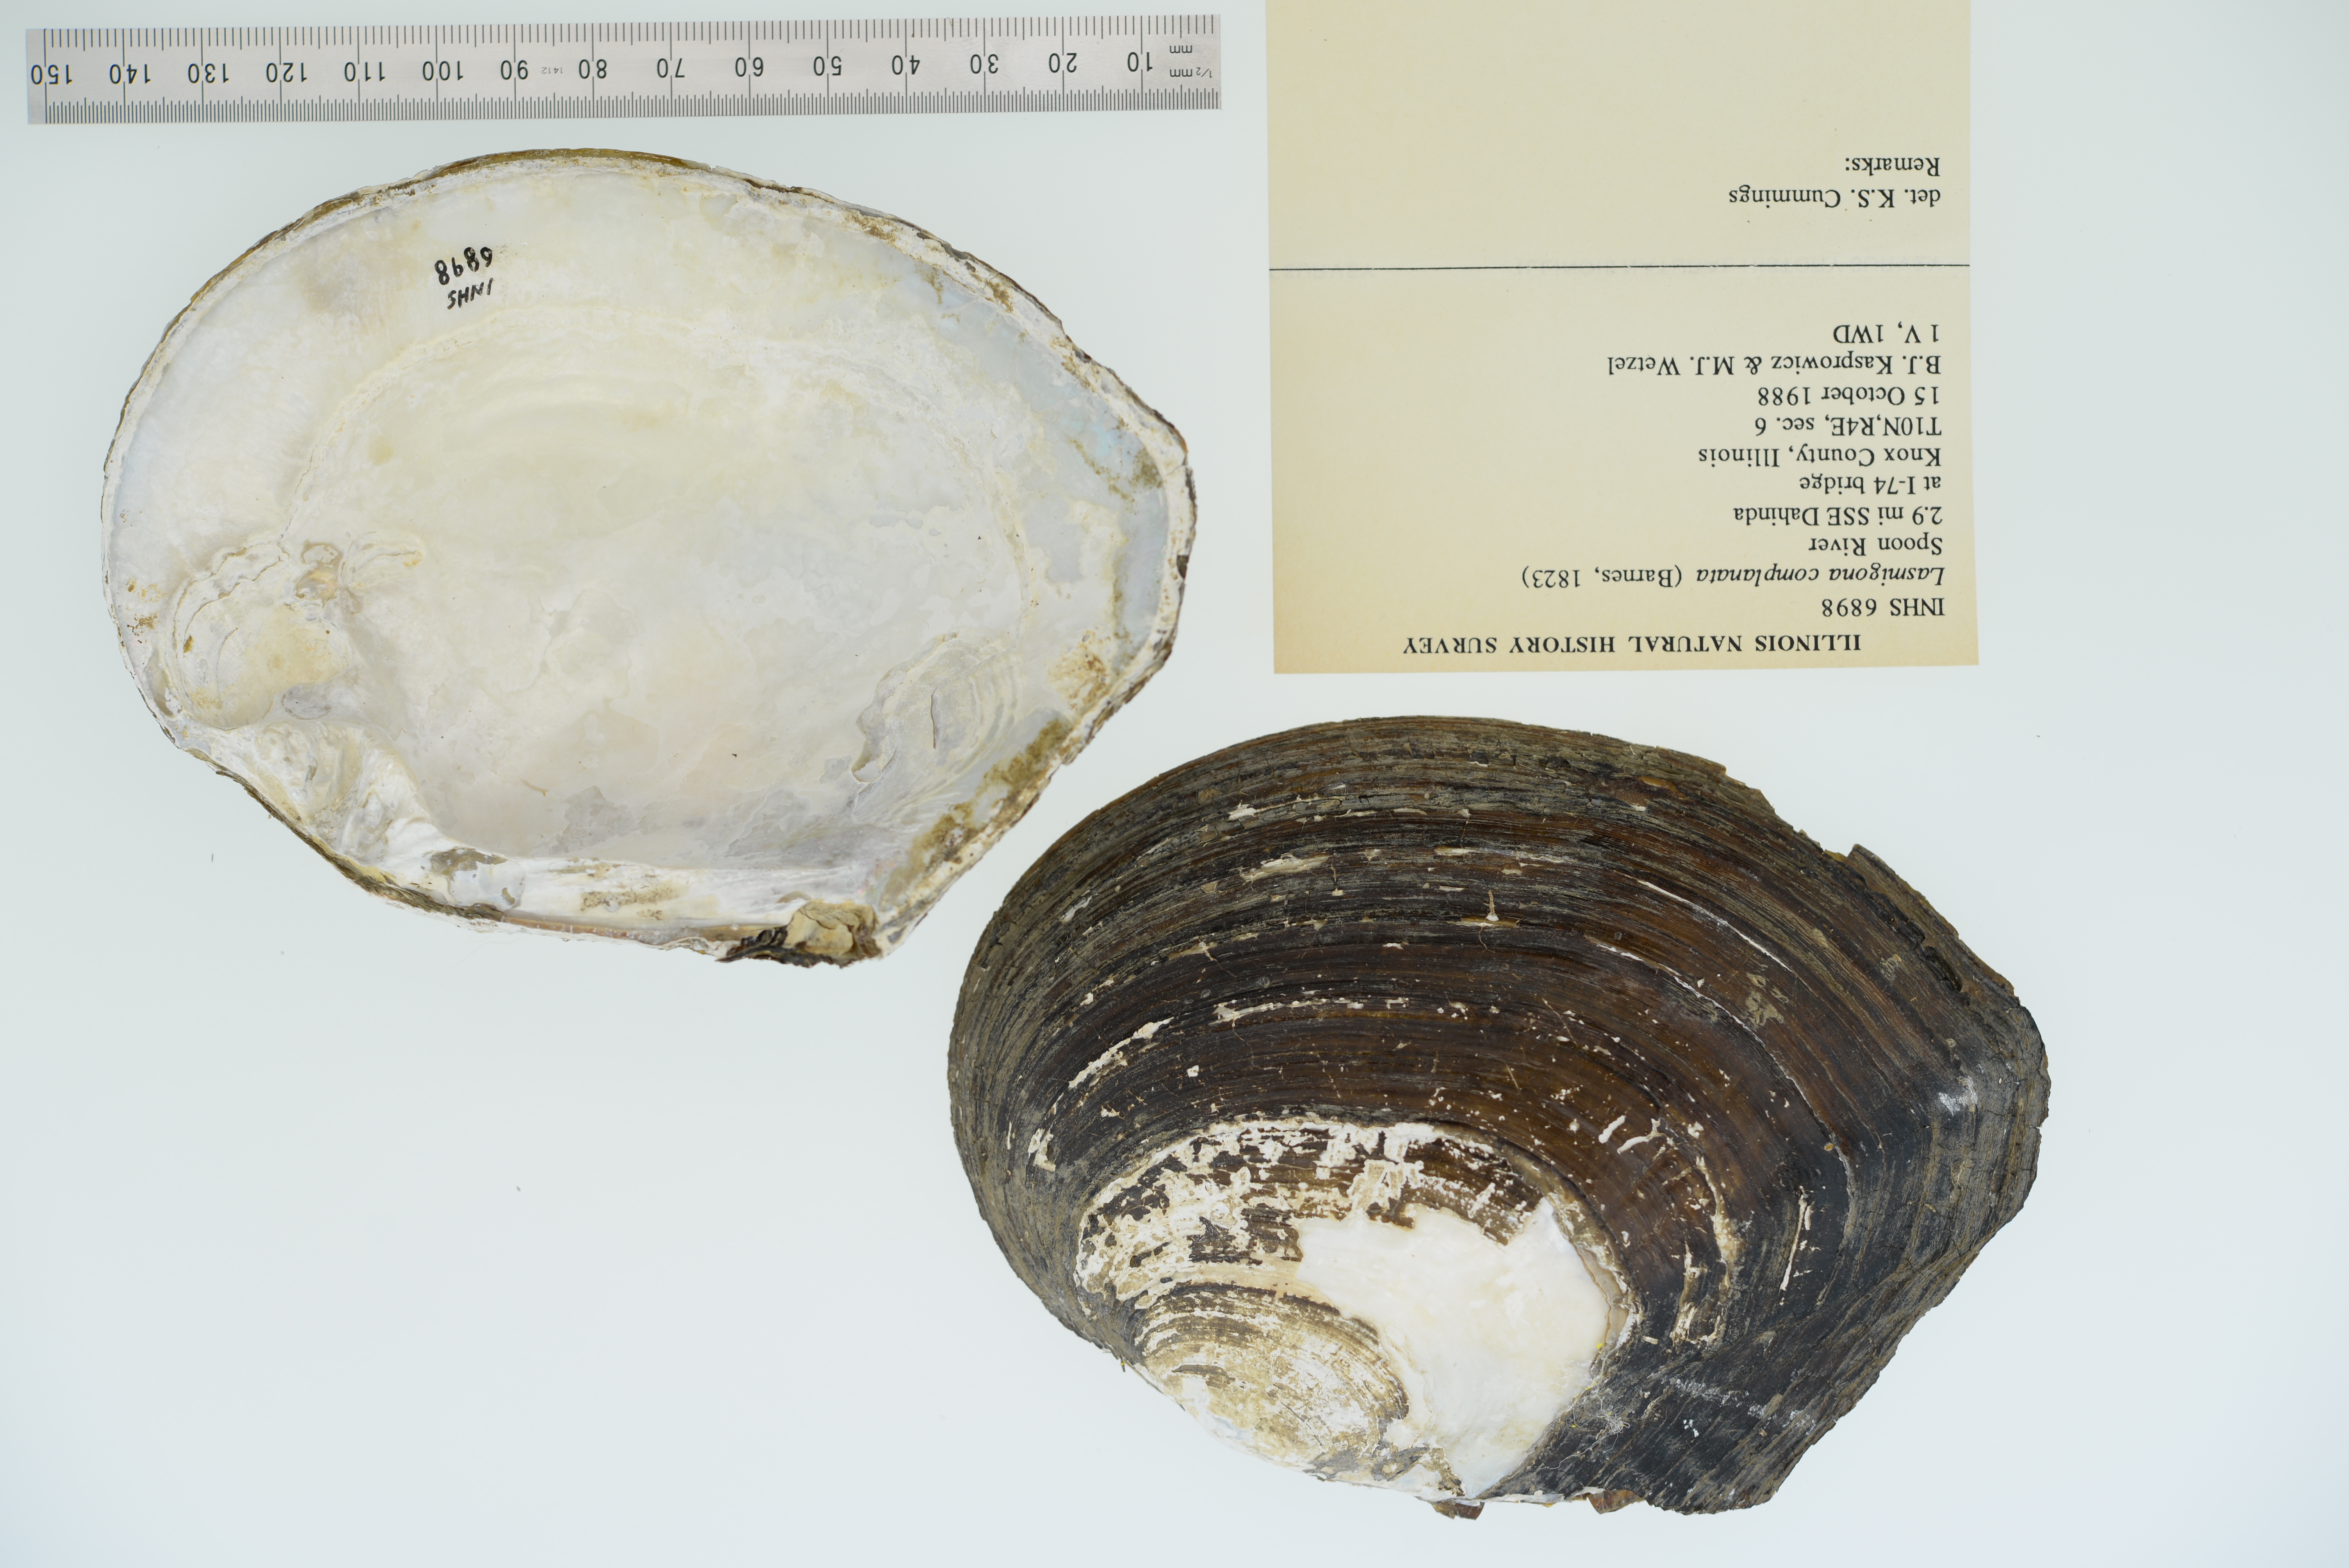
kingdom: Animalia
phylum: Mollusca
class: Bivalvia
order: Unionida
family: Unionidae
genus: Lasmigona
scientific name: Lasmigona complanata
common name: White heelsplitter
